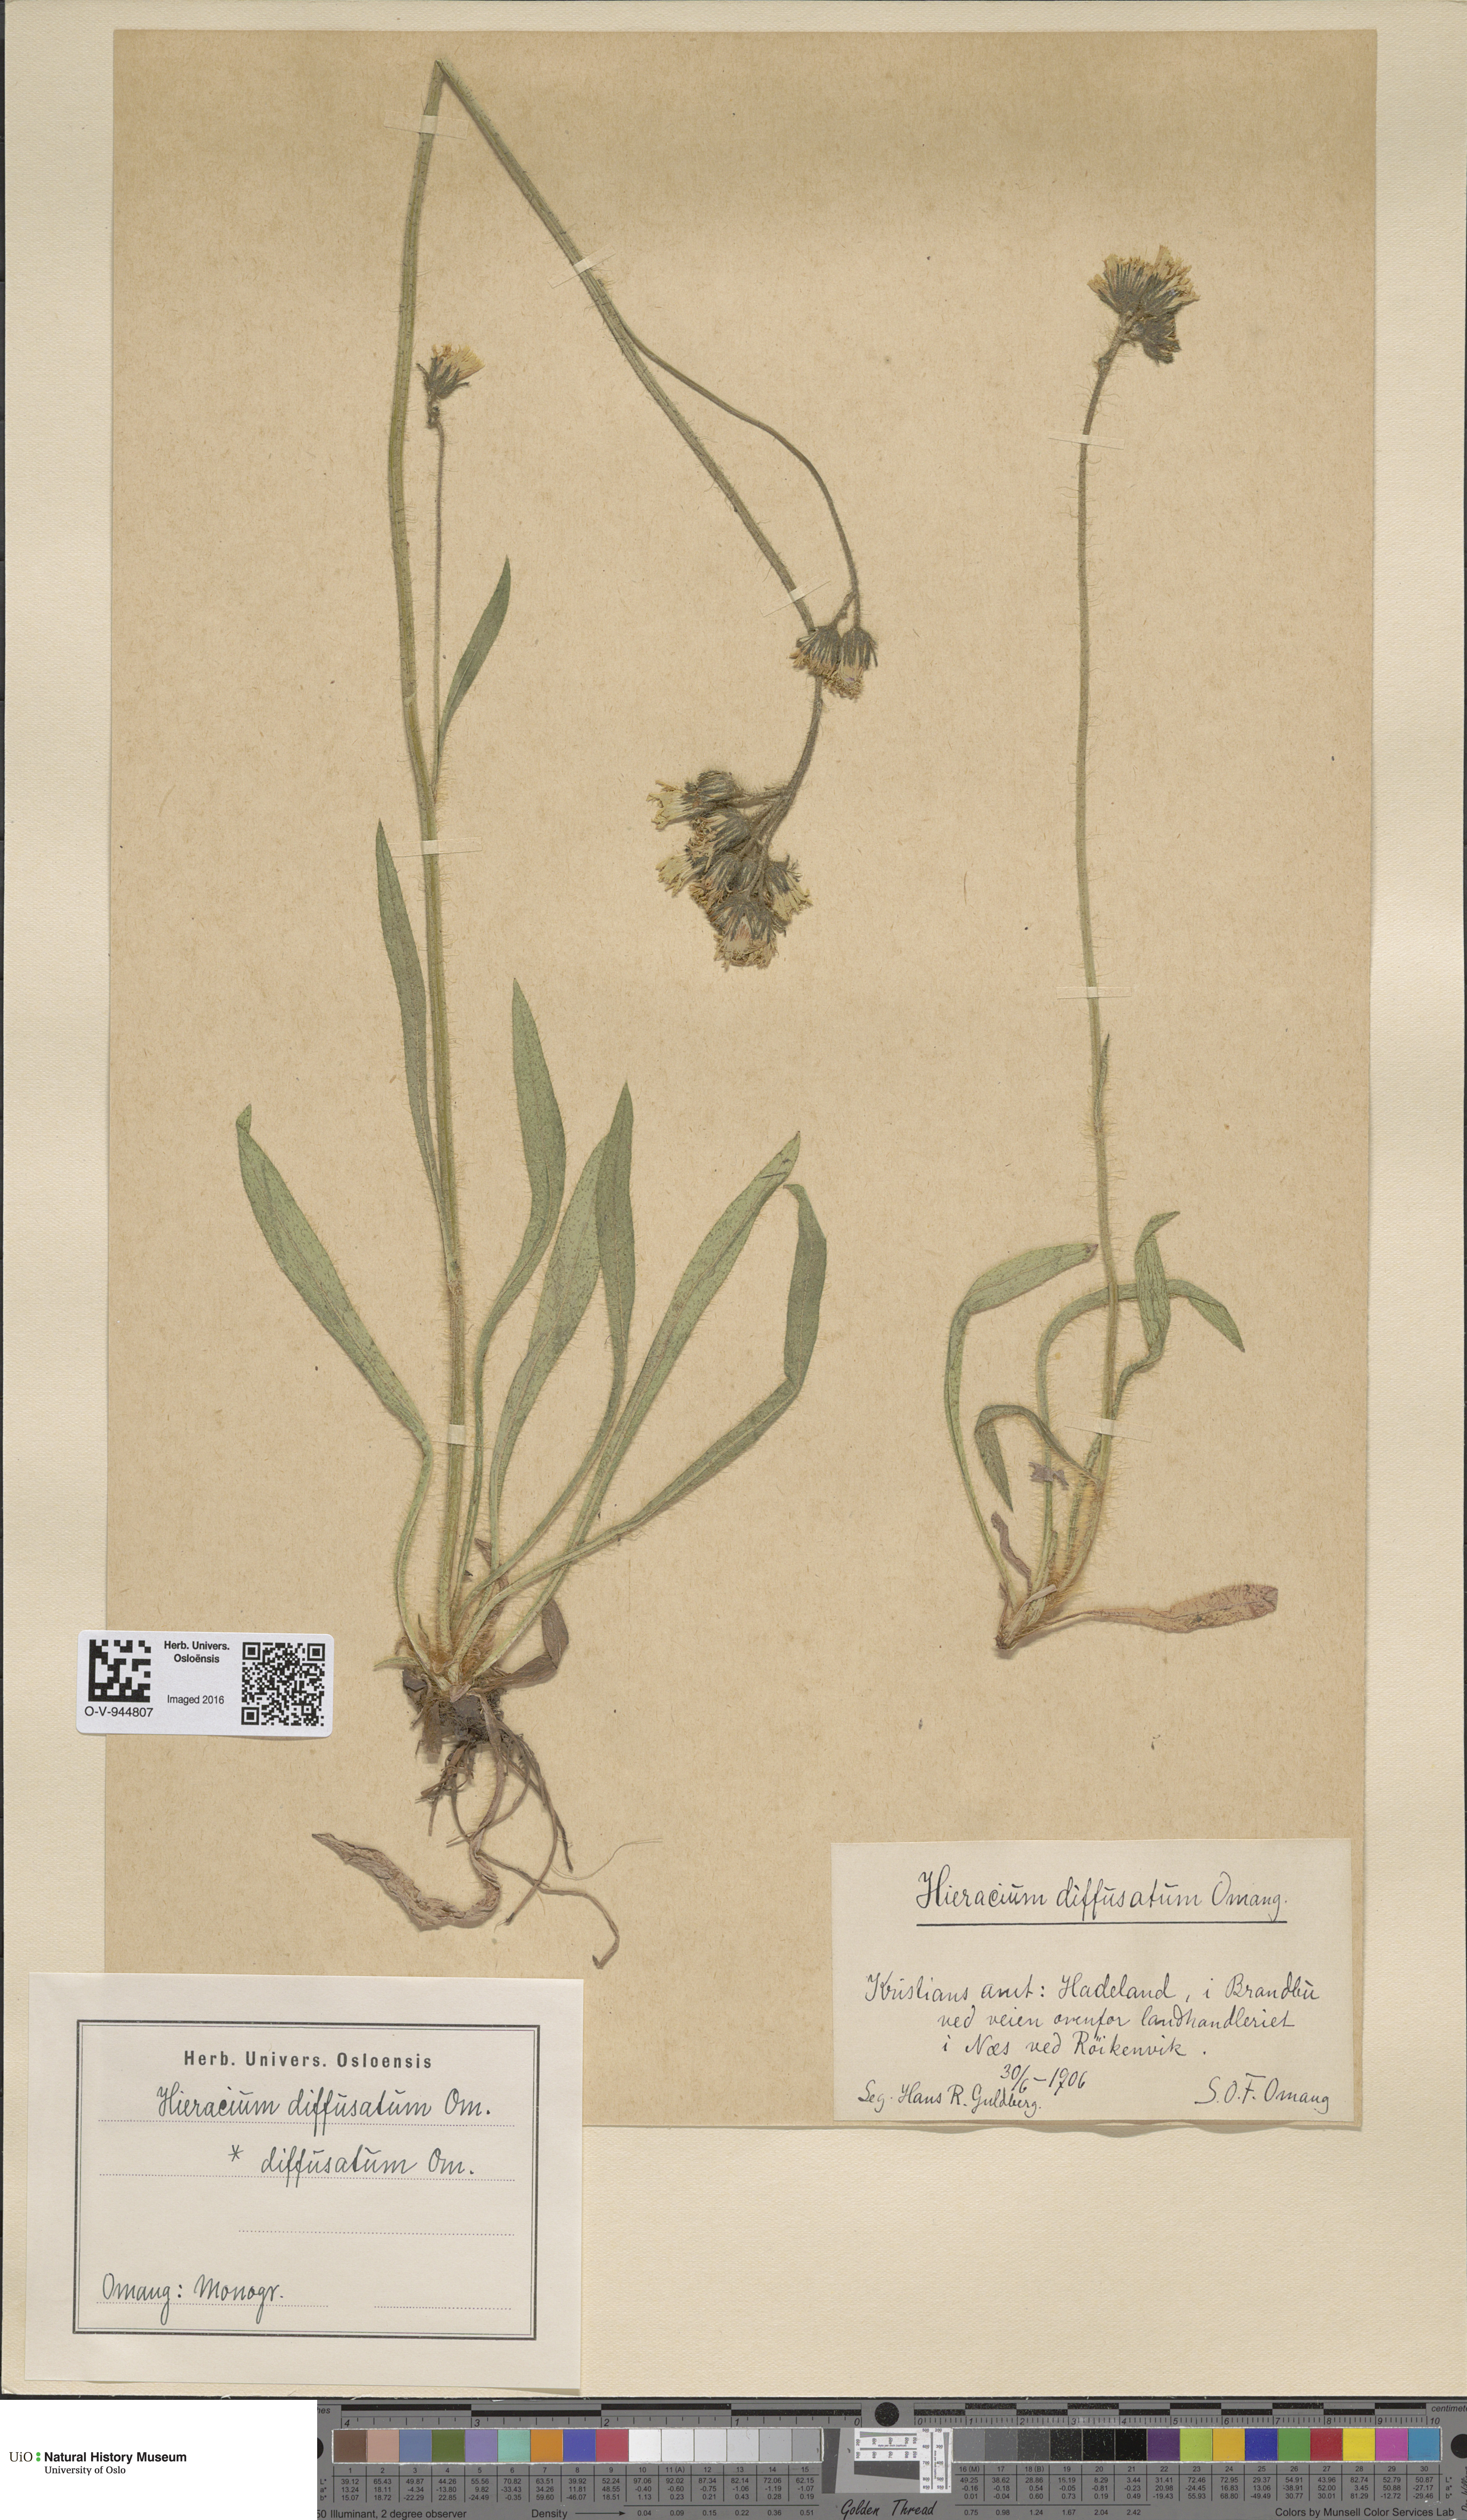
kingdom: Plantae
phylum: Tracheophyta
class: Magnoliopsida
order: Asterales
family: Asteraceae
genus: Pilosella
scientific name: Pilosella dubia
